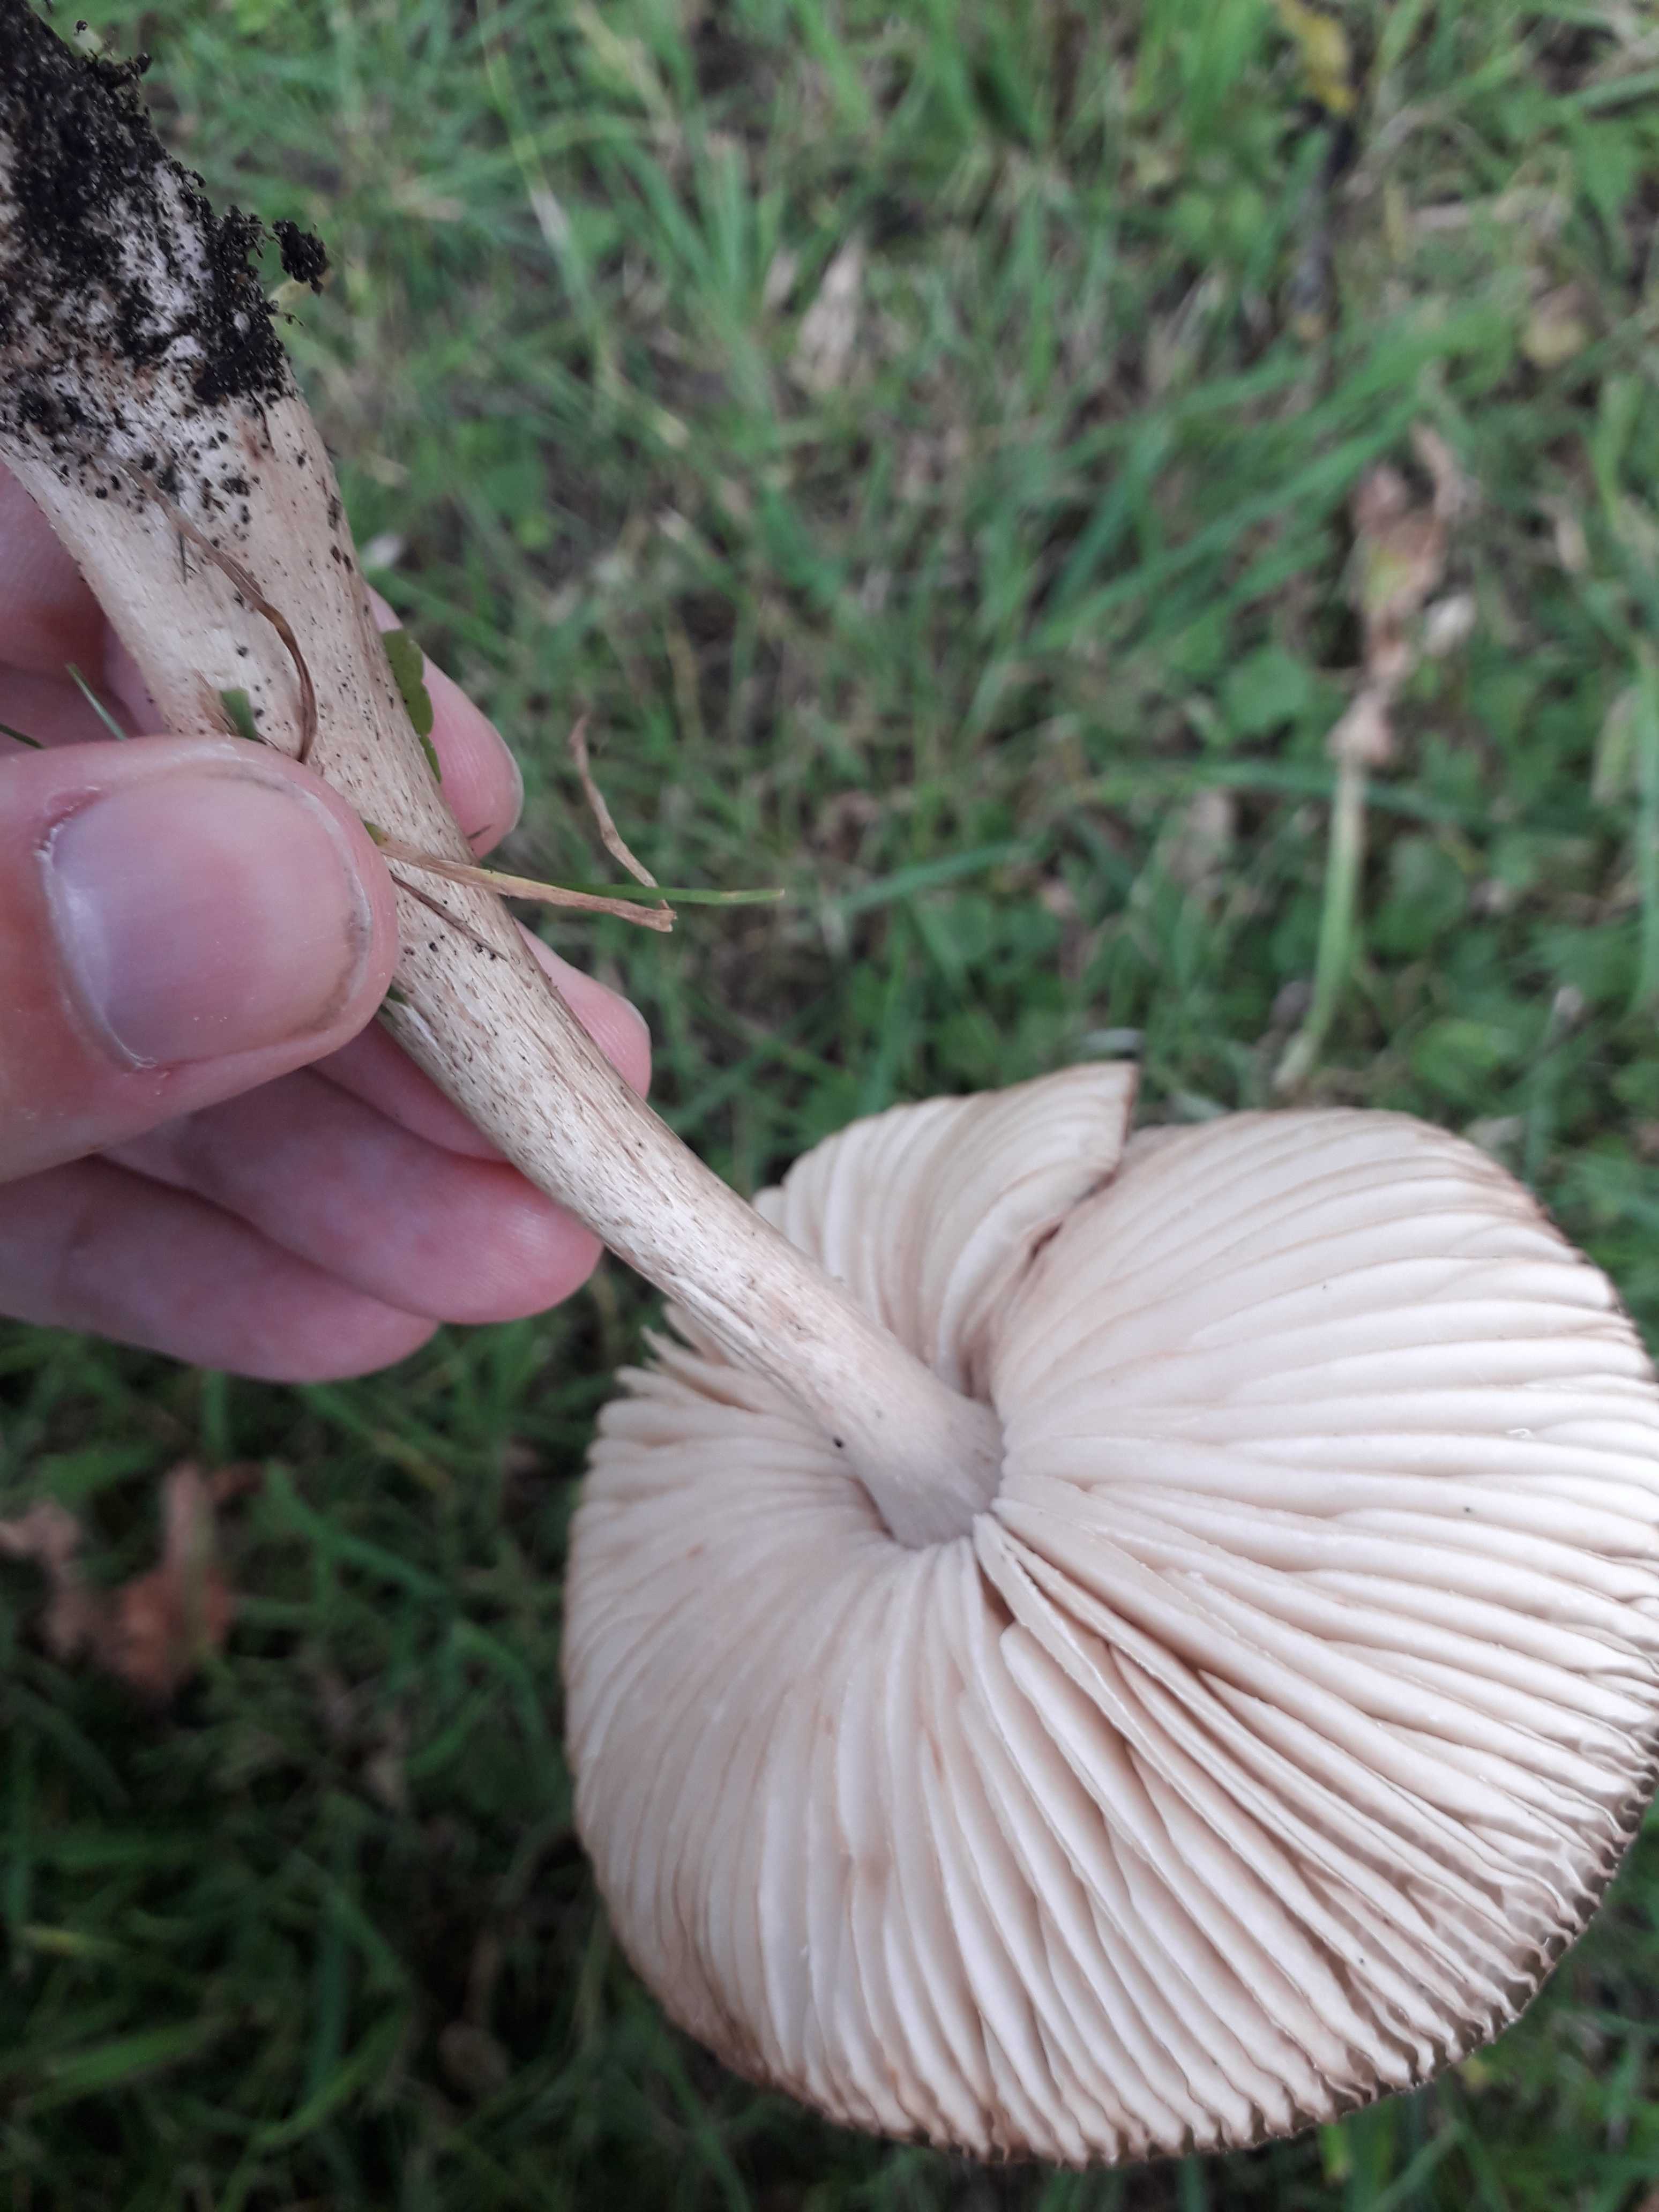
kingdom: Fungi
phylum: Basidiomycota
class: Agaricomycetes
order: Agaricales
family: Physalacriaceae
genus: Hymenopellis
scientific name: Hymenopellis radicata
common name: almindelig pælerodshat
